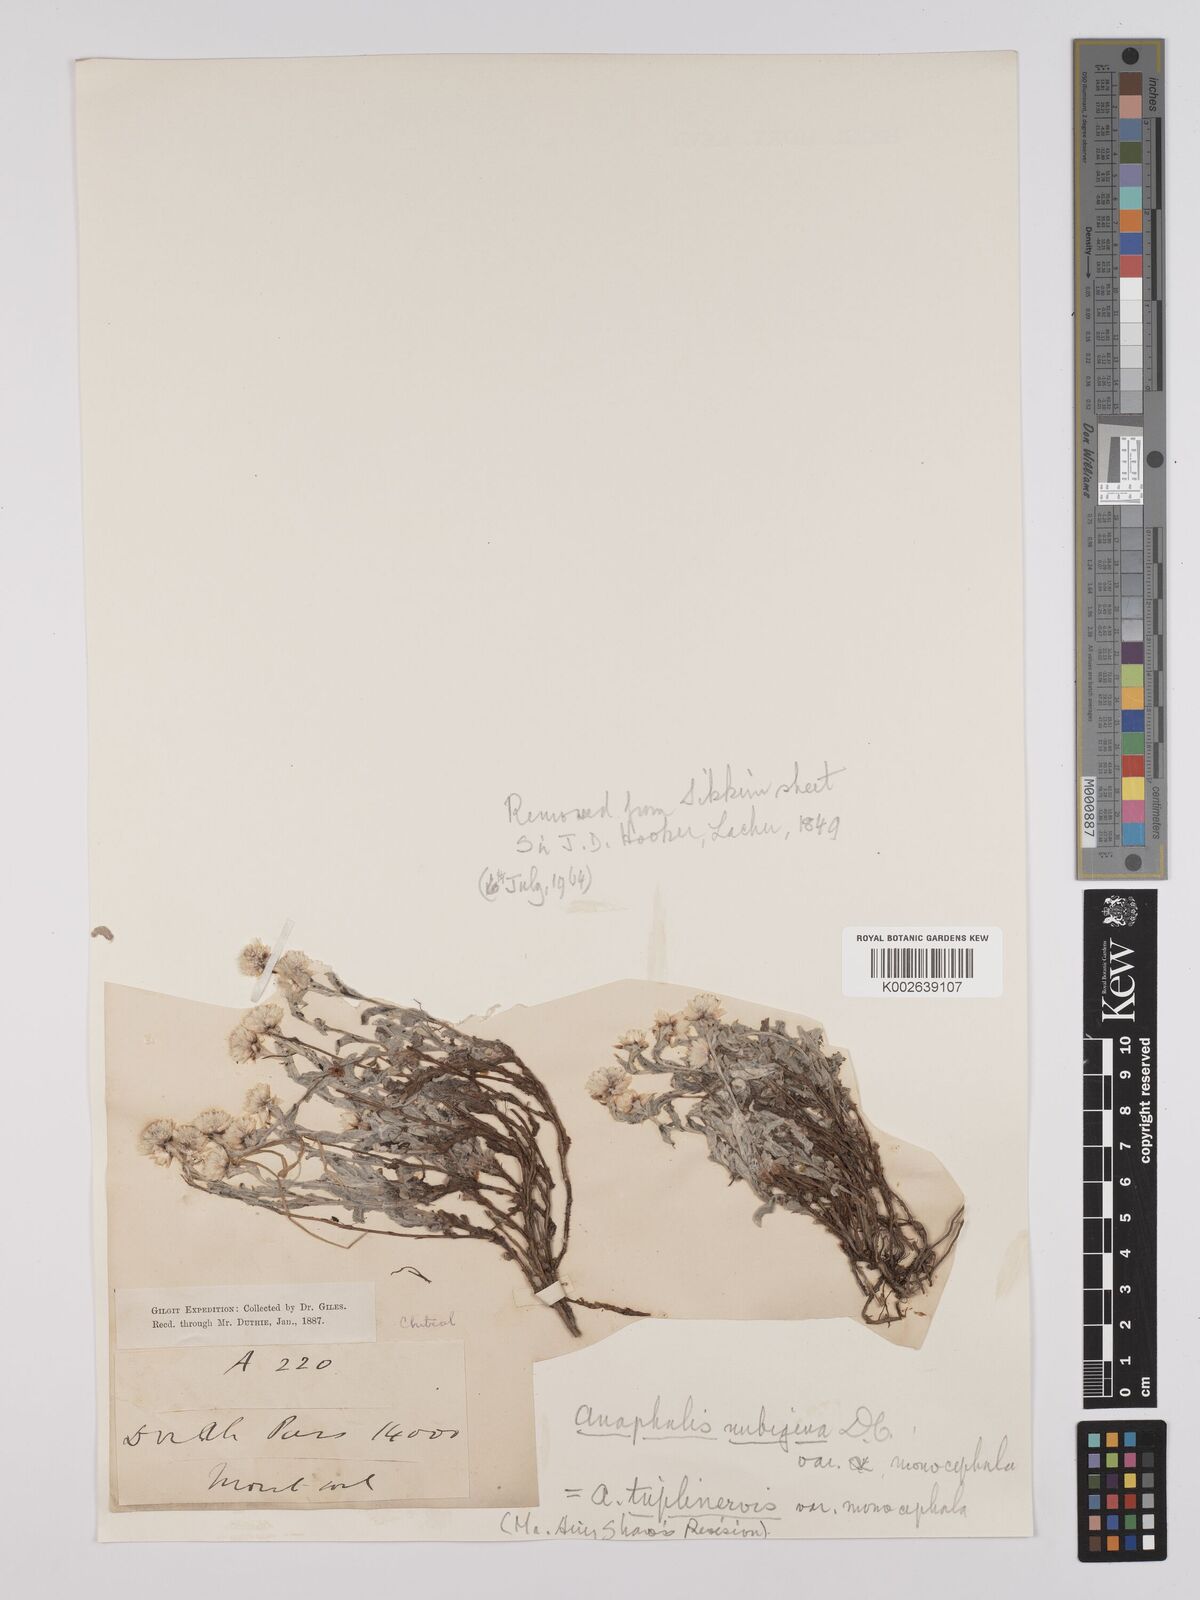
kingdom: Plantae
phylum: Tracheophyta
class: Magnoliopsida
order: Asterales
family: Asteraceae
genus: Anaphalis
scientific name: Anaphalis triplinervis
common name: Pearly everlasting
